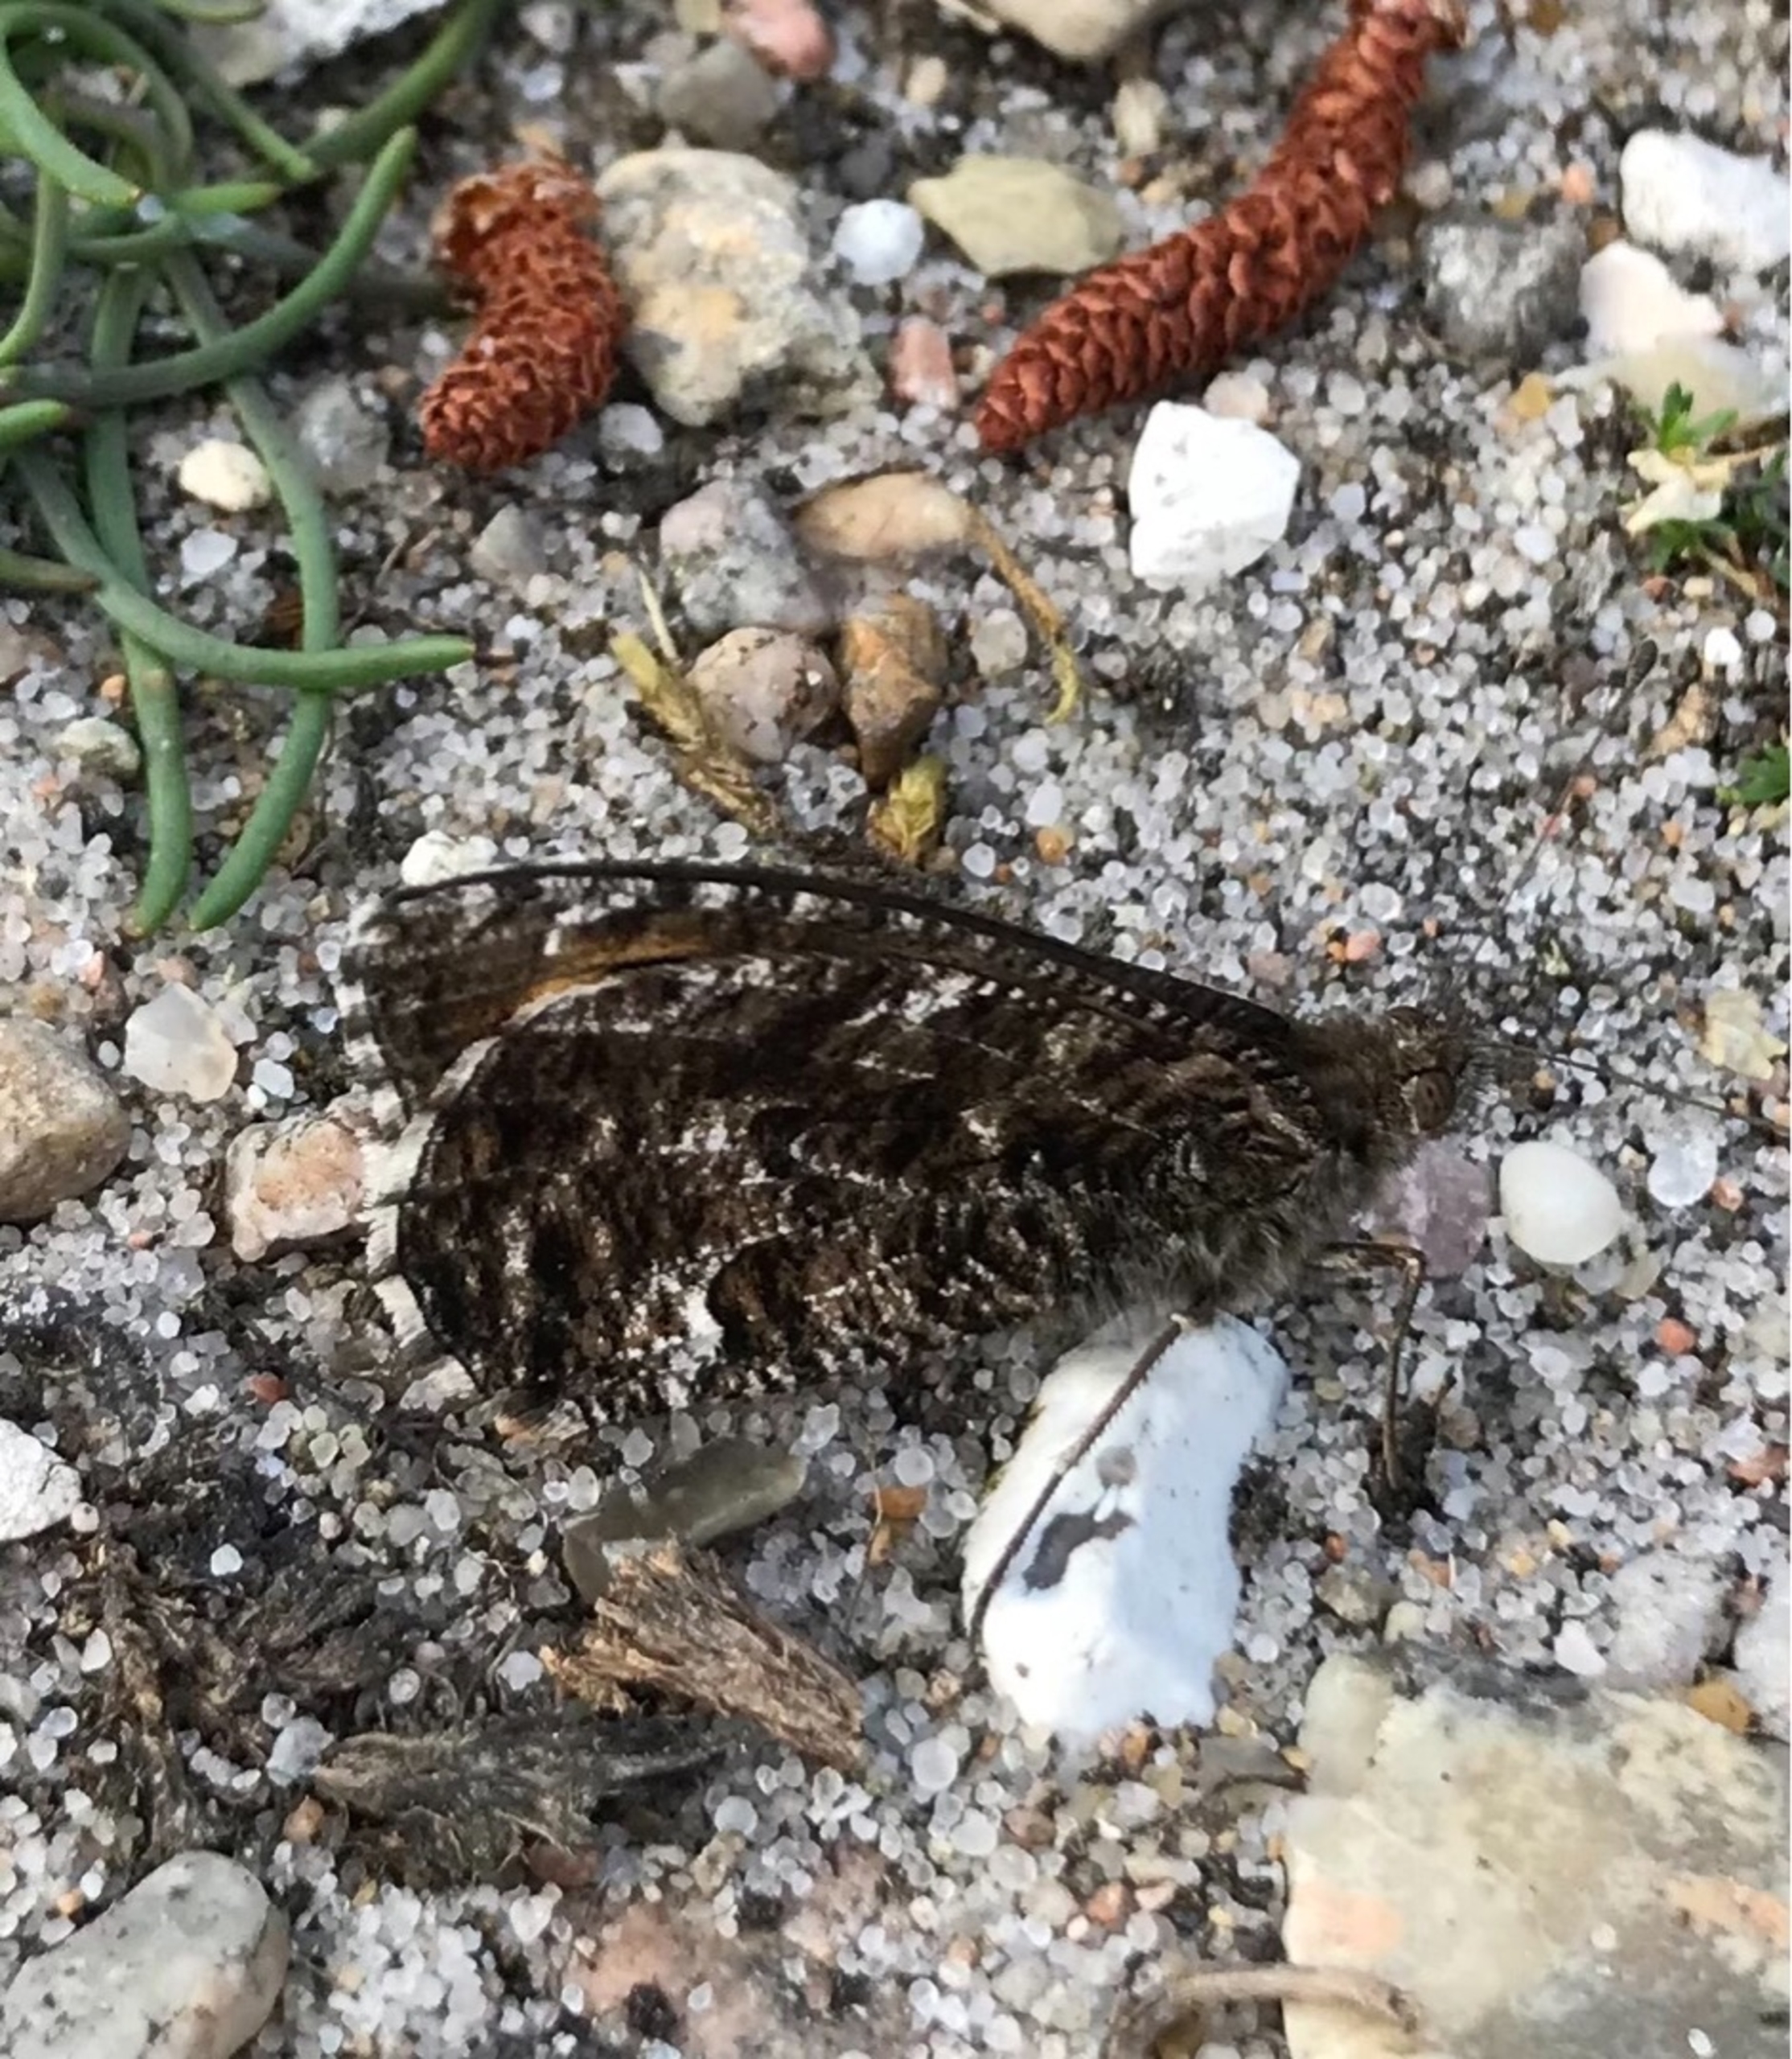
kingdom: Animalia
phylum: Arthropoda
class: Insecta
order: Lepidoptera
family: Nymphalidae
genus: Hipparchia
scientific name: Hipparchia semele
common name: Sandrandøje
